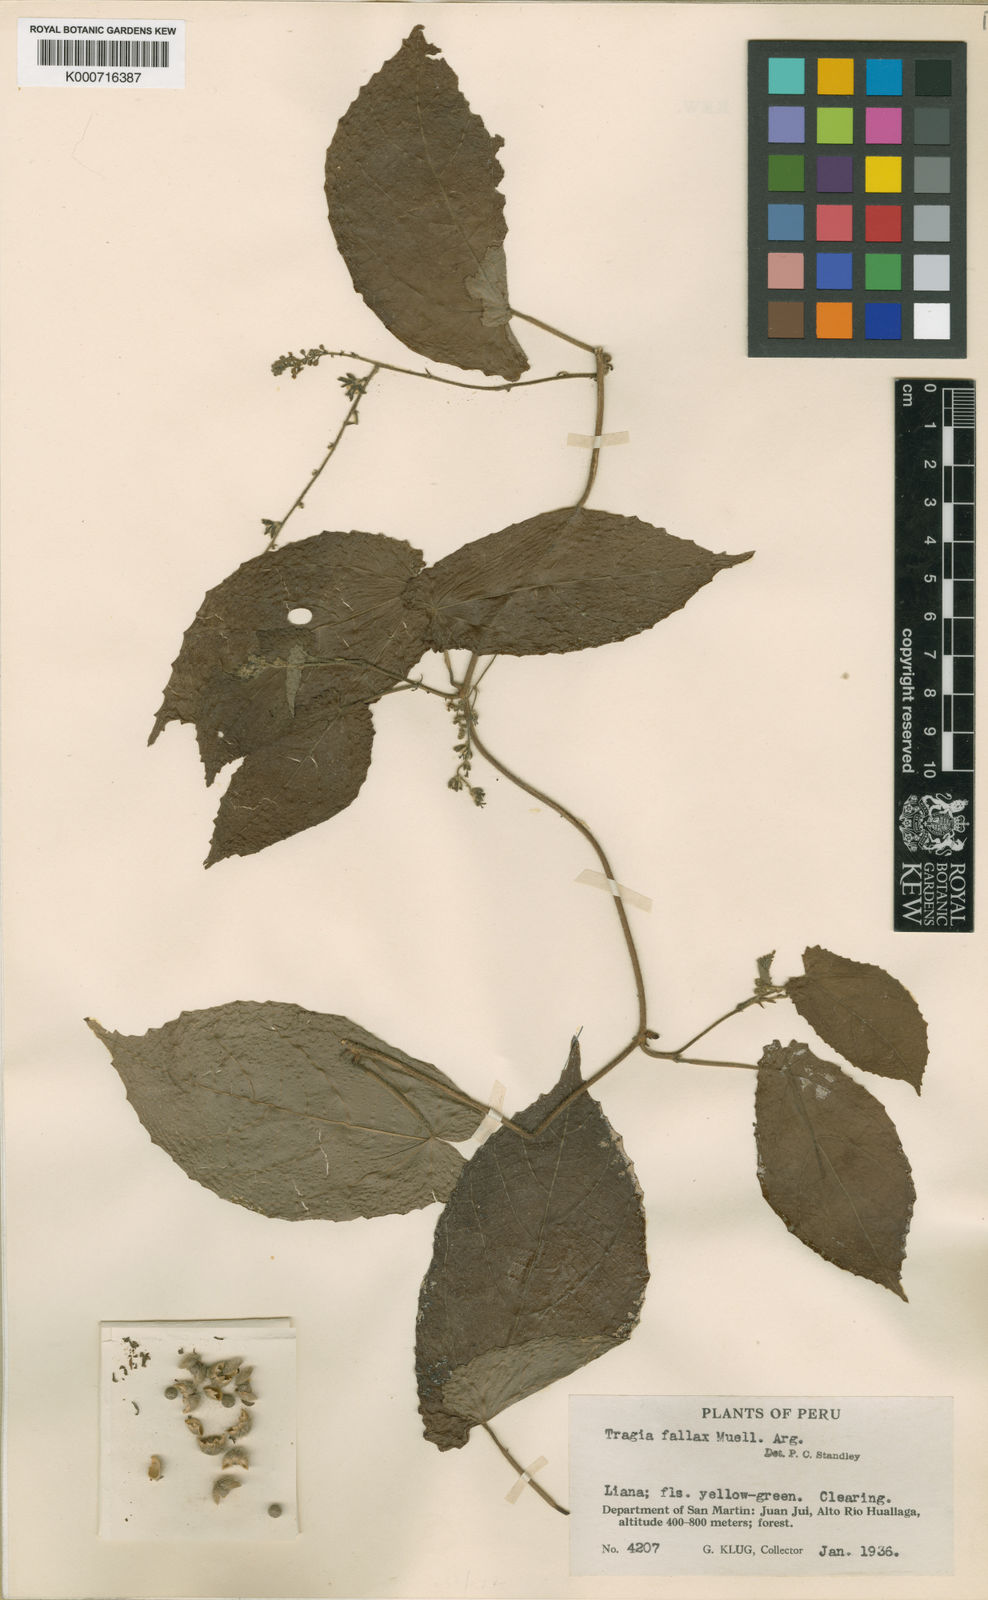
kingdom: Plantae
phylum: Tracheophyta
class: Magnoliopsida
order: Malpighiales
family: Euphorbiaceae
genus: Bia
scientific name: Bia
